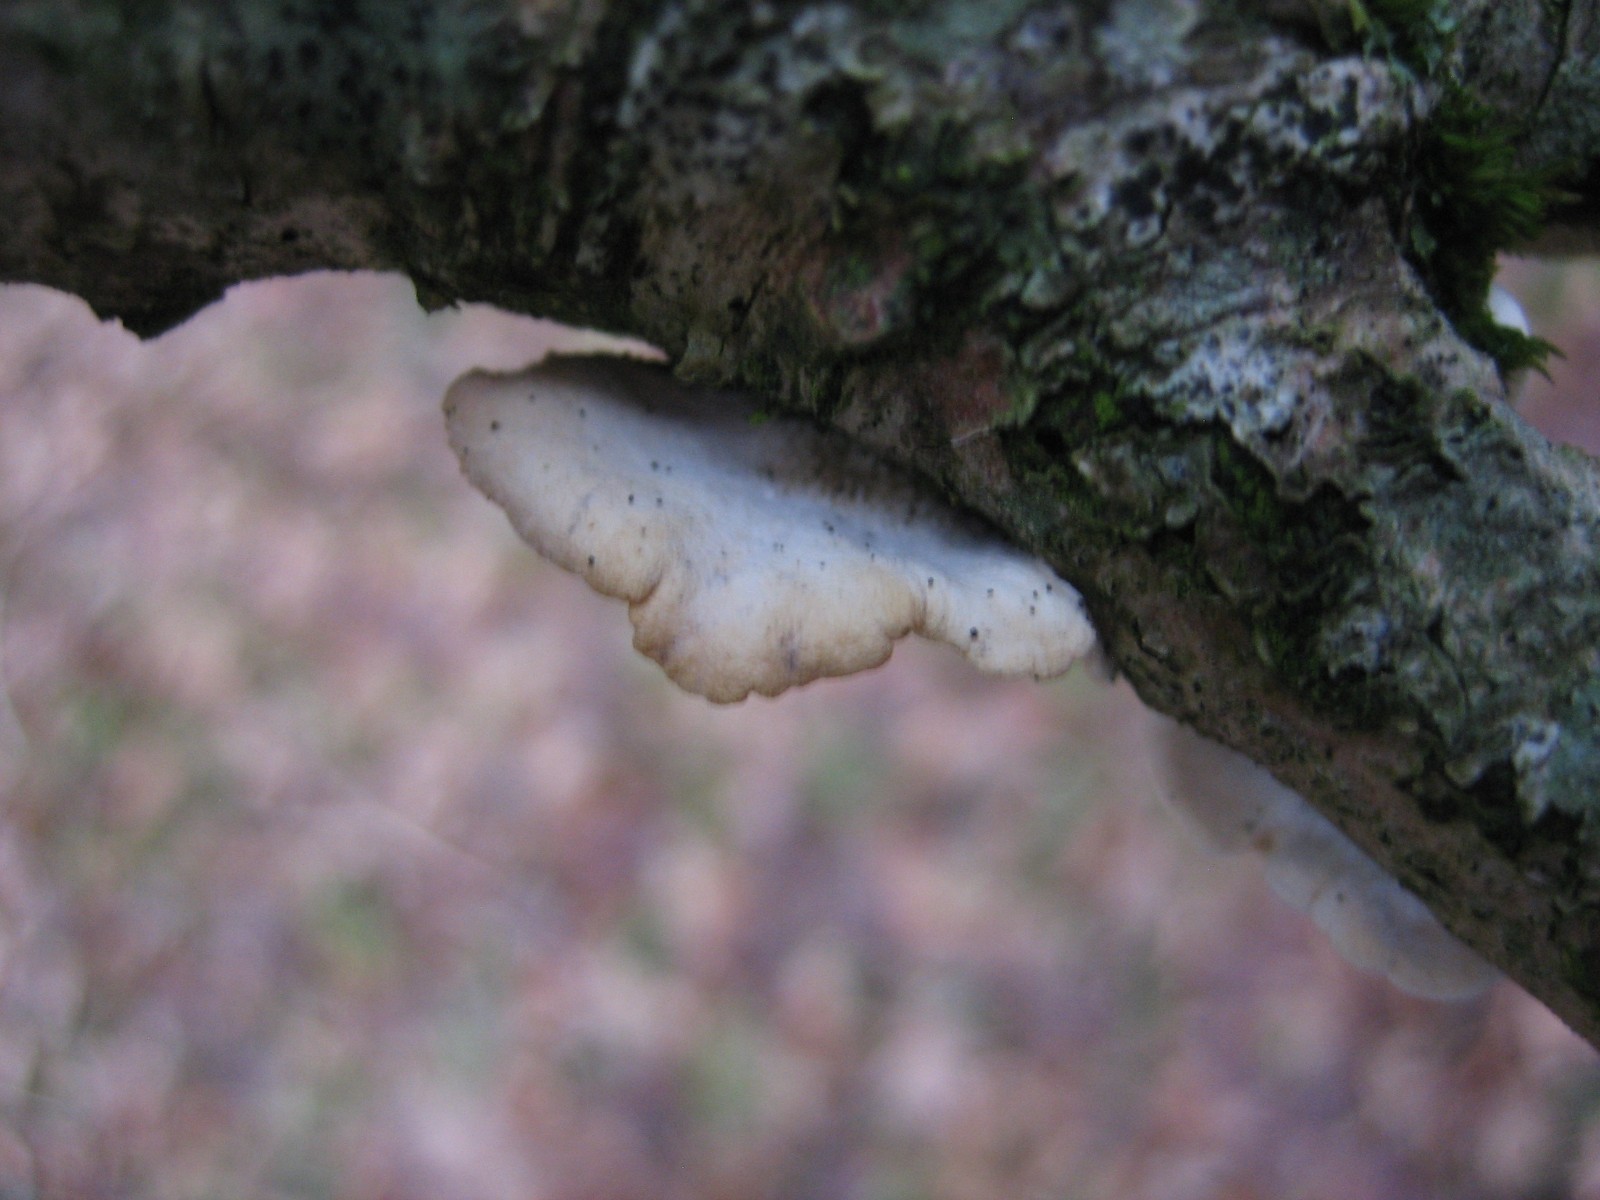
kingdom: Fungi
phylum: Basidiomycota
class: Agaricomycetes
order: Agaricales
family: Crepidotaceae
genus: Crepidotus
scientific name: Crepidotus
